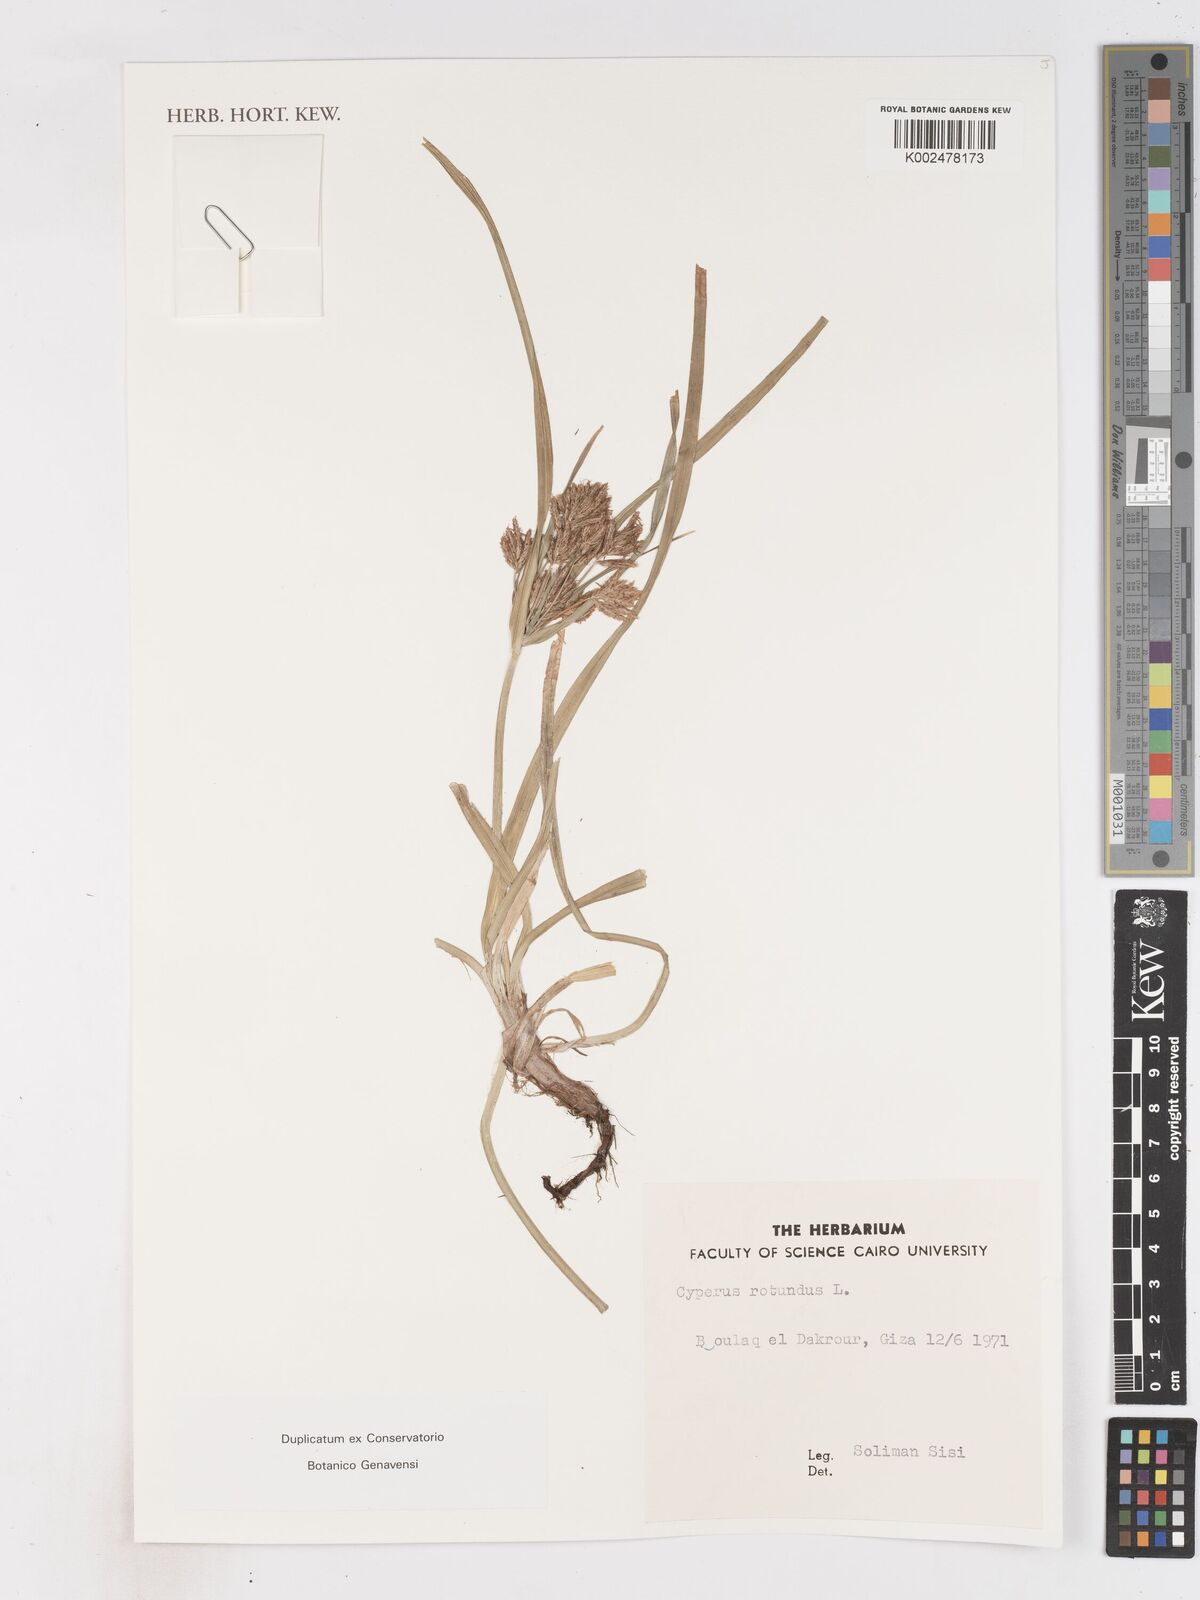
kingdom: Plantae
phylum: Tracheophyta
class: Liliopsida
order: Poales
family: Cyperaceae
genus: Cyperus
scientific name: Cyperus rotundus
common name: Nutgrass
